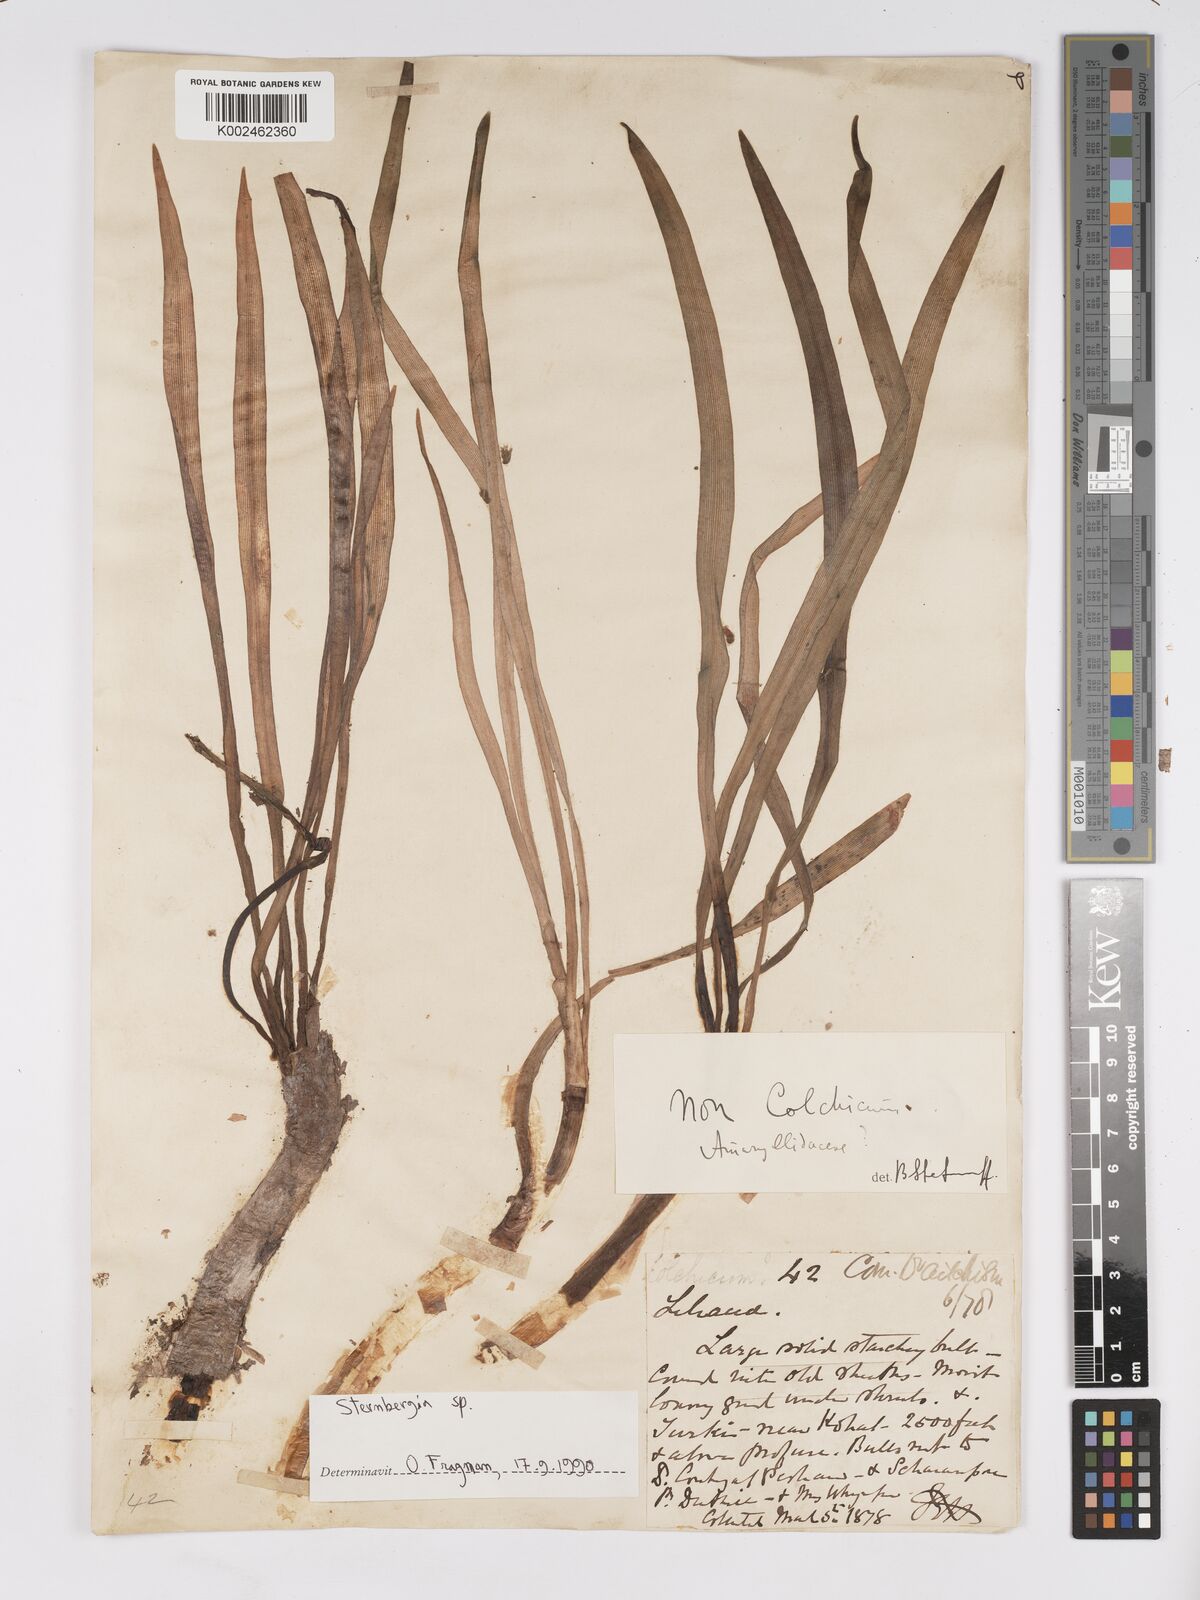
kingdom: Plantae
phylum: Tracheophyta
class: Liliopsida
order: Asparagales
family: Amaryllidaceae
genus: Sternbergia
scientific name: Sternbergia
